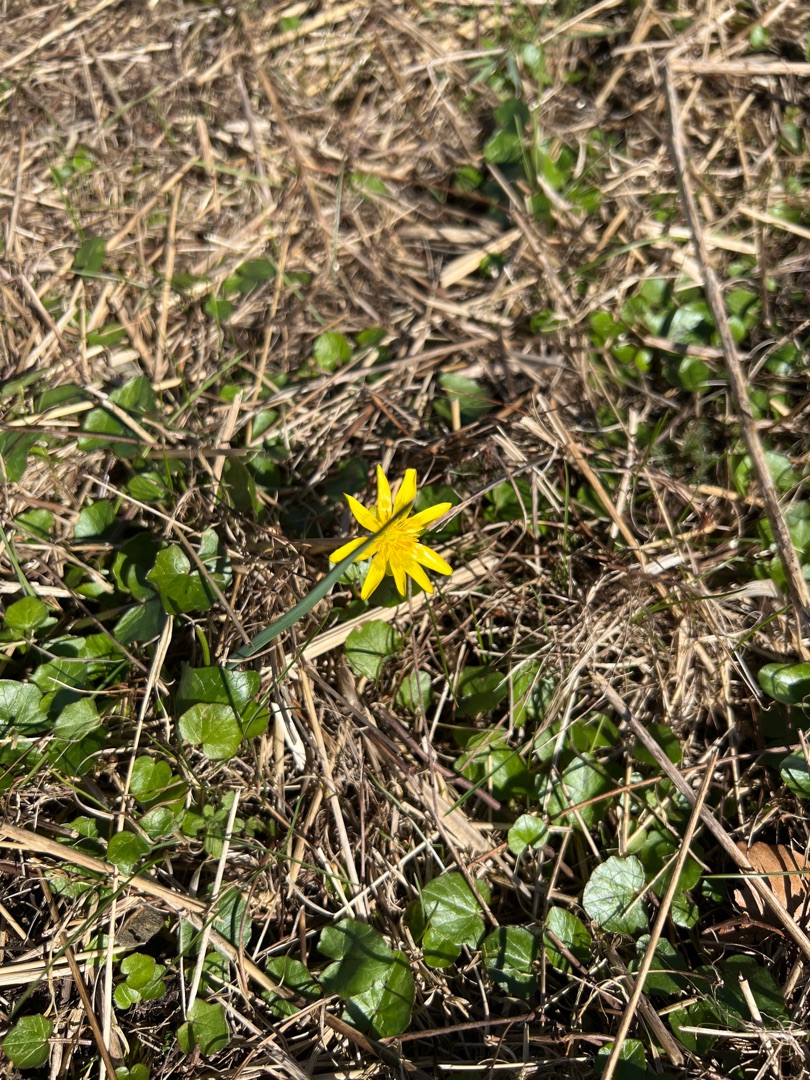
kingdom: Plantae
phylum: Tracheophyta
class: Magnoliopsida
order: Ranunculales
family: Ranunculaceae
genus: Ficaria
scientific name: Ficaria verna
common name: Almindelig vorterod
